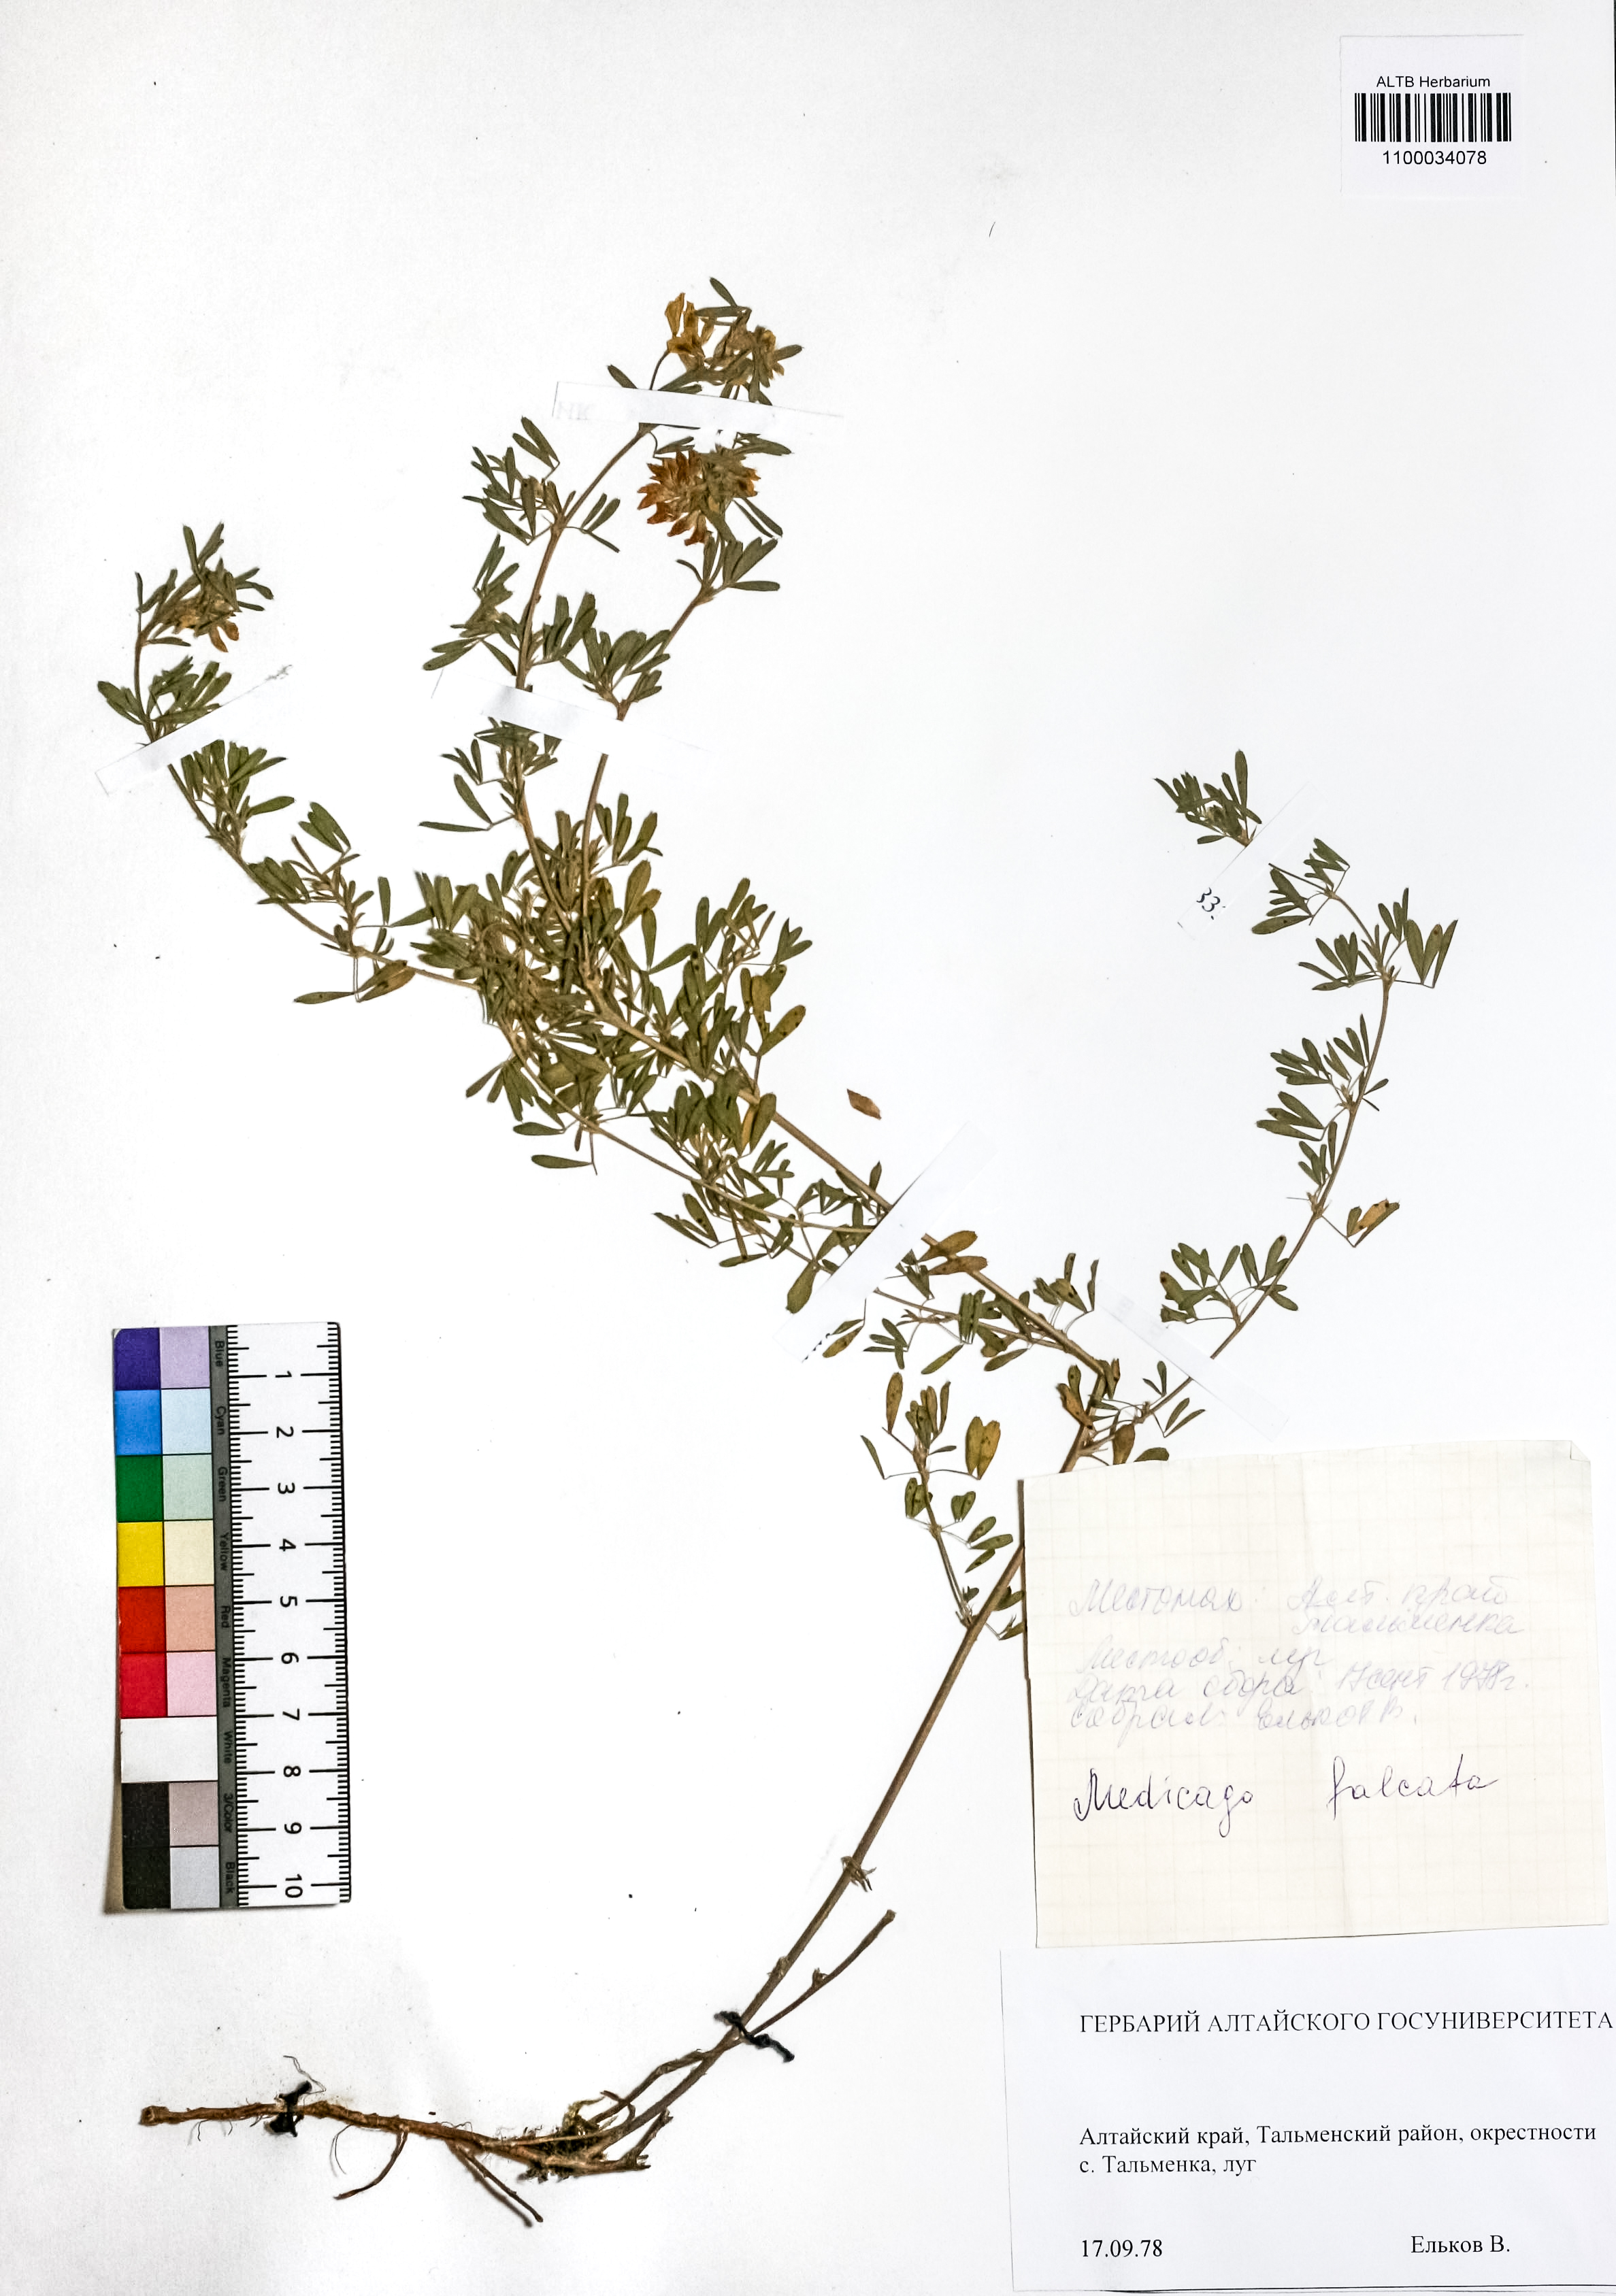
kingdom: Plantae
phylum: Tracheophyta
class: Magnoliopsida
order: Fabales
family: Fabaceae
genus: Medicago
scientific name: Medicago falcata
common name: Sickle medick
